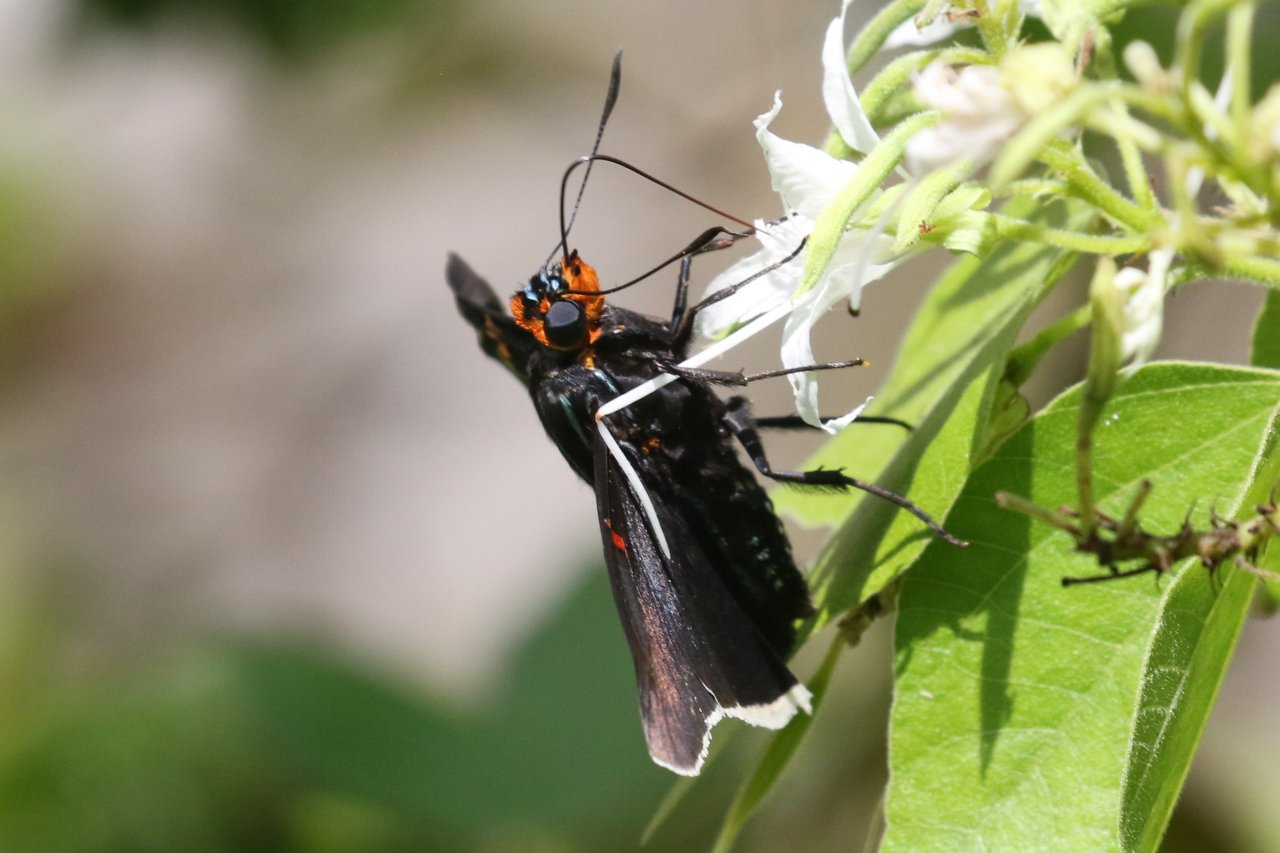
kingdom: Animalia
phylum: Arthropoda
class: Insecta
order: Lepidoptera
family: Hesperiidae
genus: Phocides
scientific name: Phocides polybius
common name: Guava Skipper
